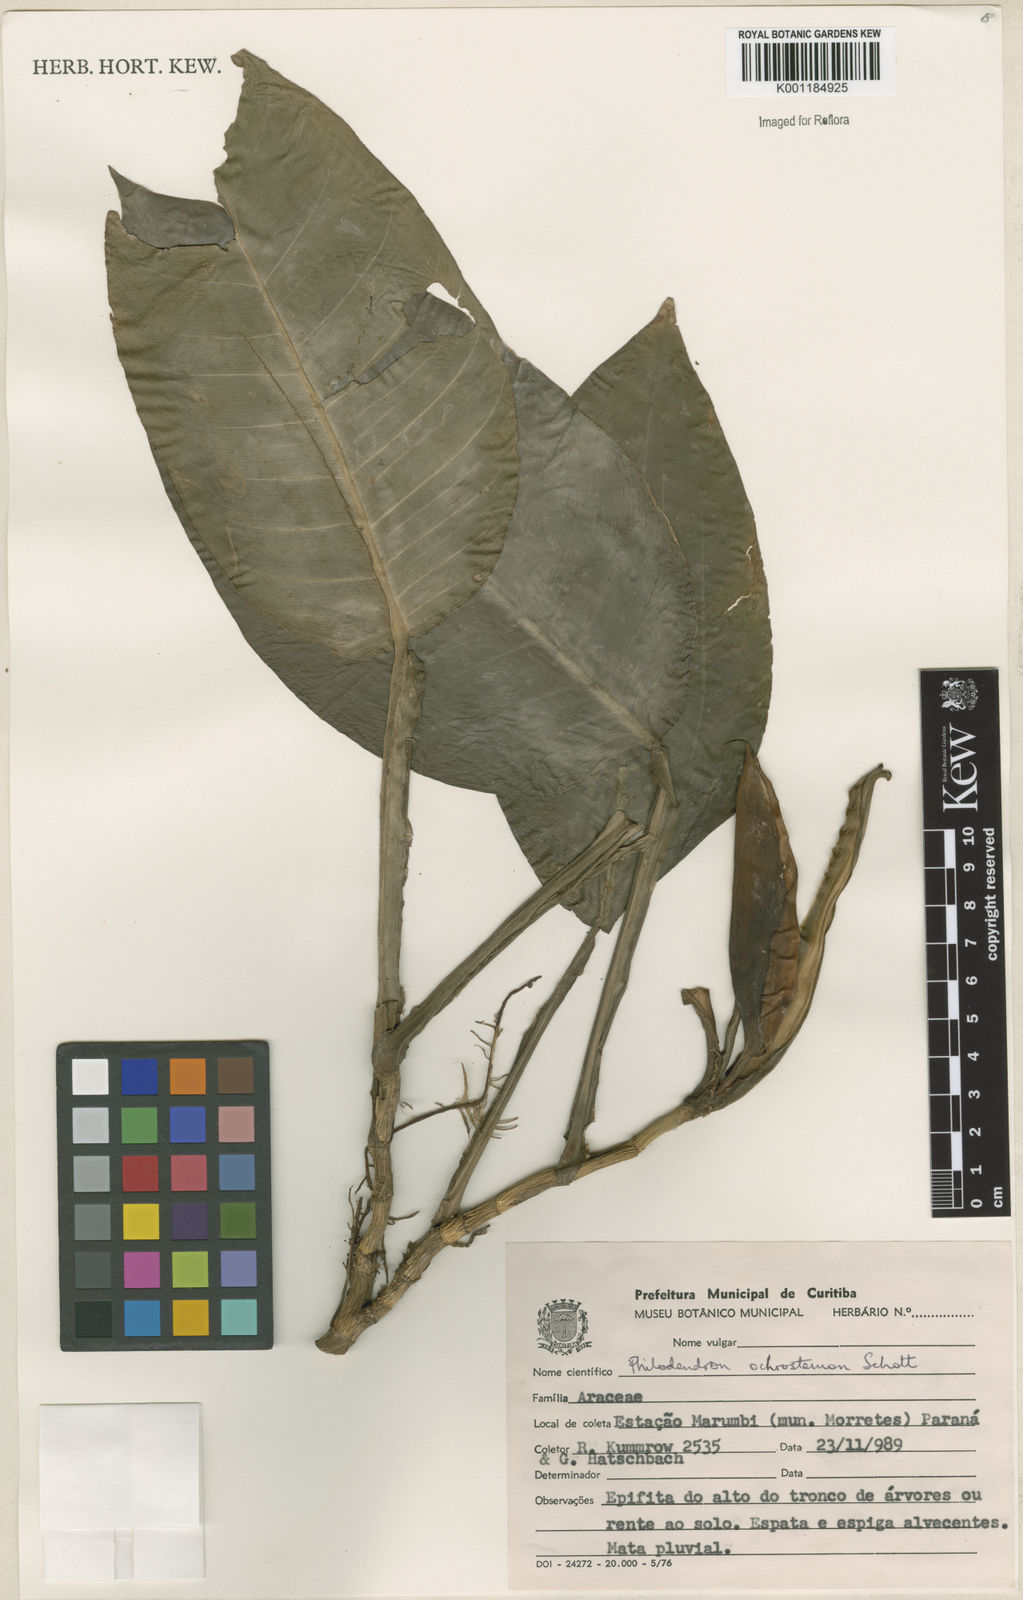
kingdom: Plantae
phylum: Tracheophyta
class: Liliopsida
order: Alismatales
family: Araceae
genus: Philodendron
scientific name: Philodendron ochrostemon
